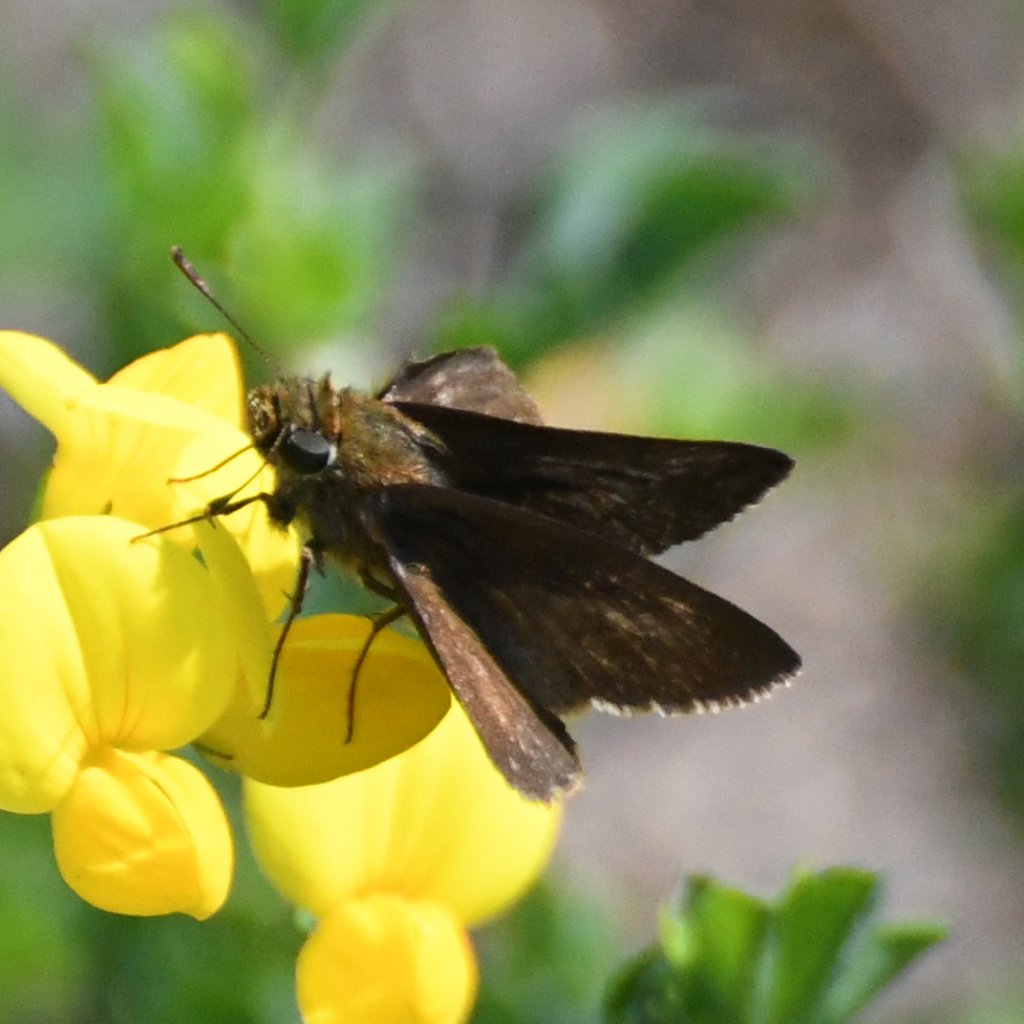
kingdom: Animalia
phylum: Arthropoda
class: Insecta
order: Lepidoptera
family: Hesperiidae
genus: Euphyes
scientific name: Euphyes vestris
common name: Dun Skipper
